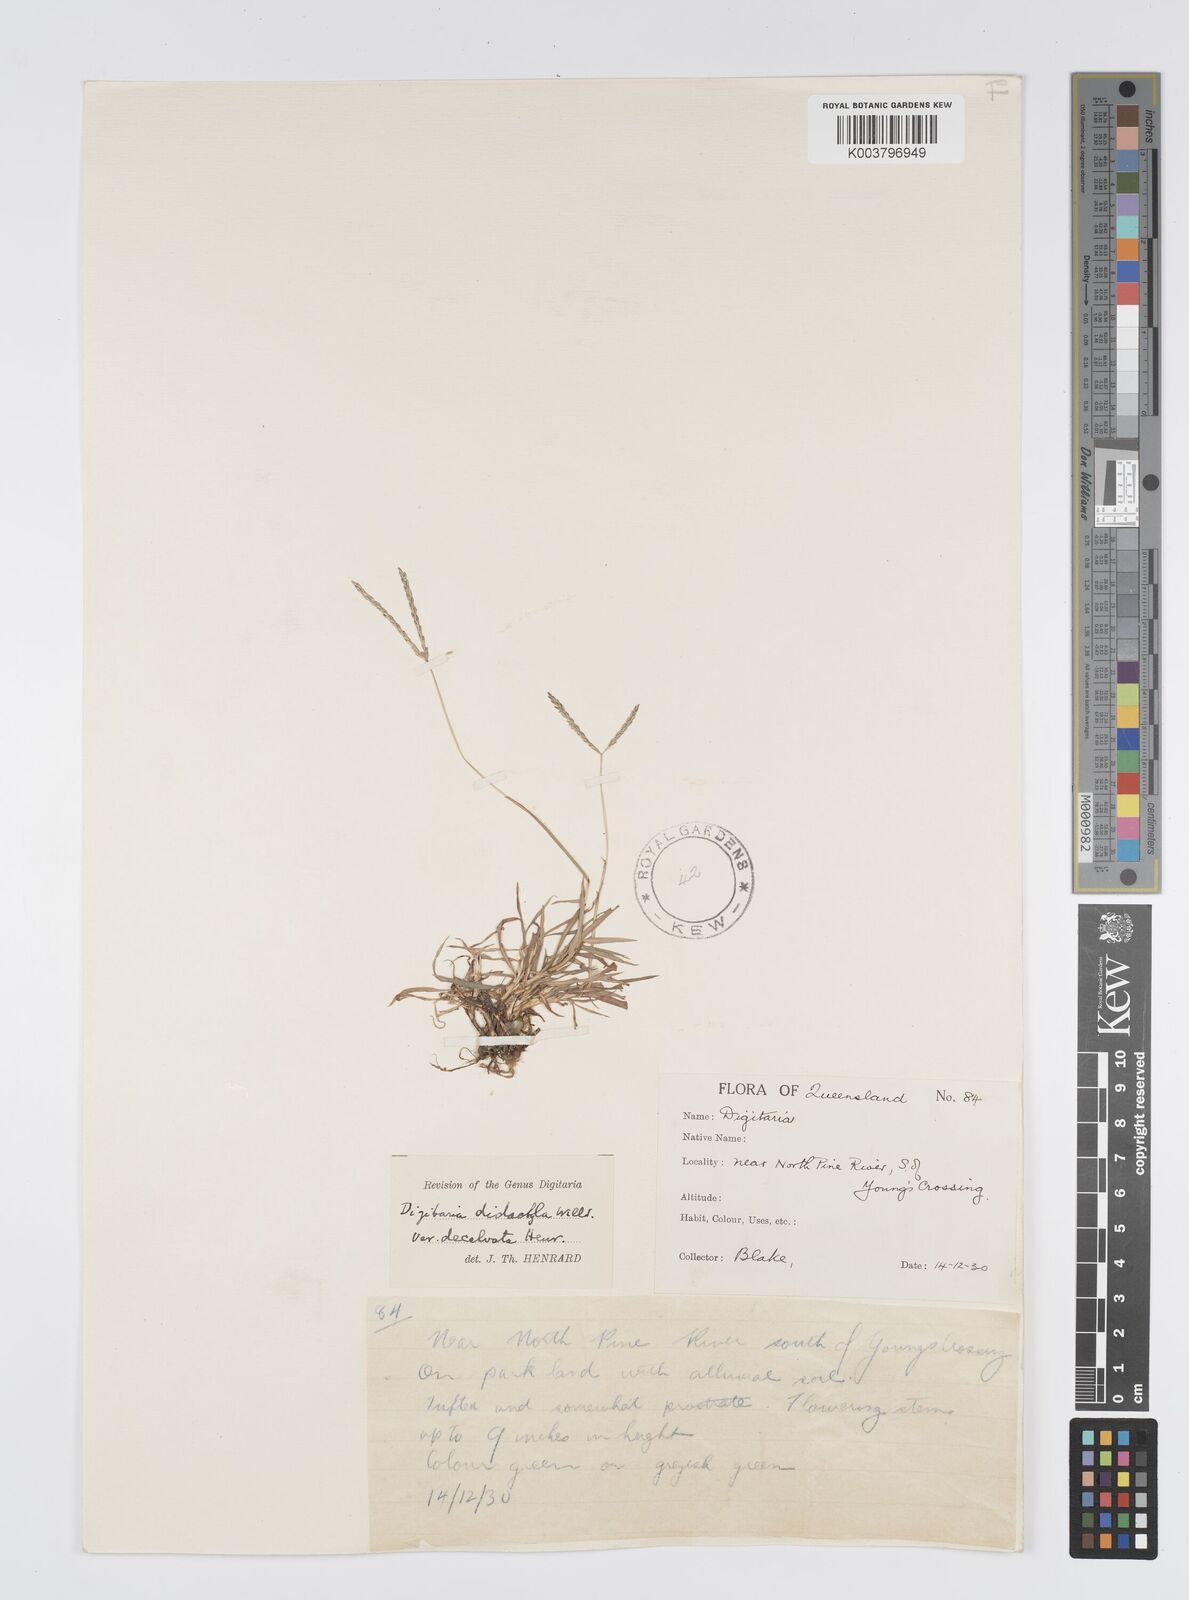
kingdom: Plantae
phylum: Tracheophyta
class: Liliopsida
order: Poales
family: Poaceae
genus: Digitaria
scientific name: Digitaria didactyla
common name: Blue couch
